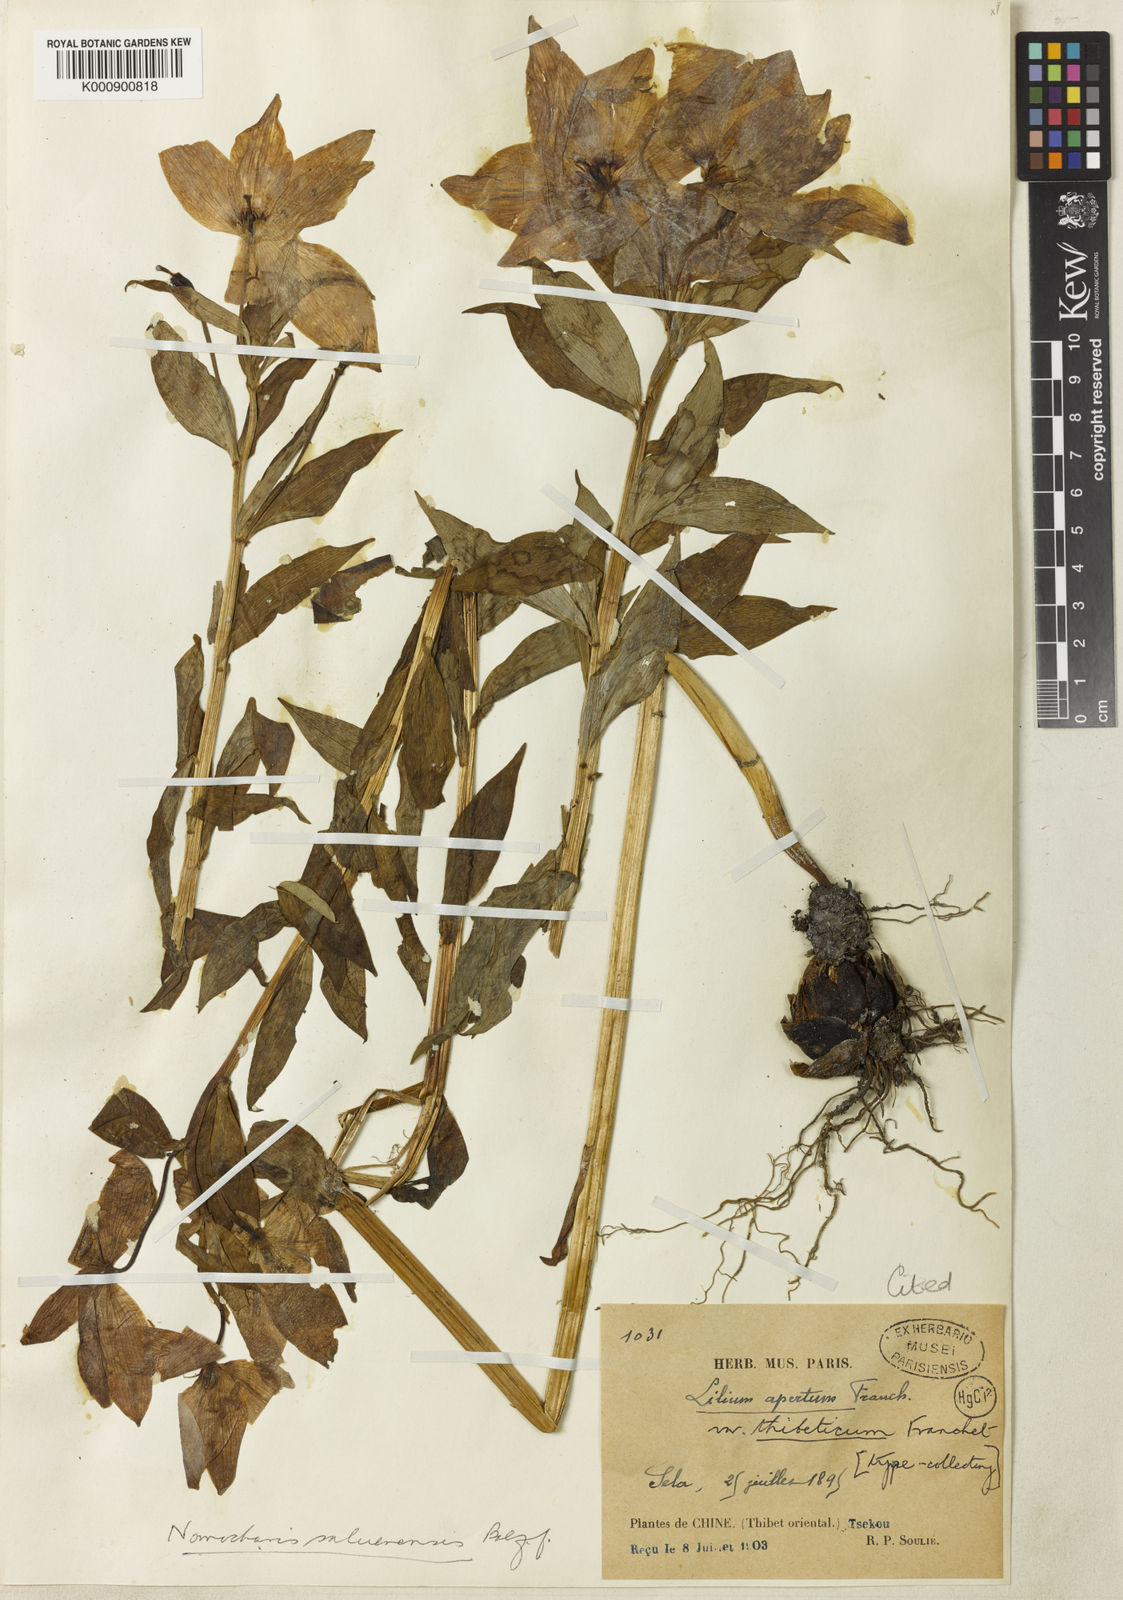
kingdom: Plantae
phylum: Tracheophyta
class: Liliopsida
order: Liliales
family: Liliaceae
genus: Lilium
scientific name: Lilium saluenense
